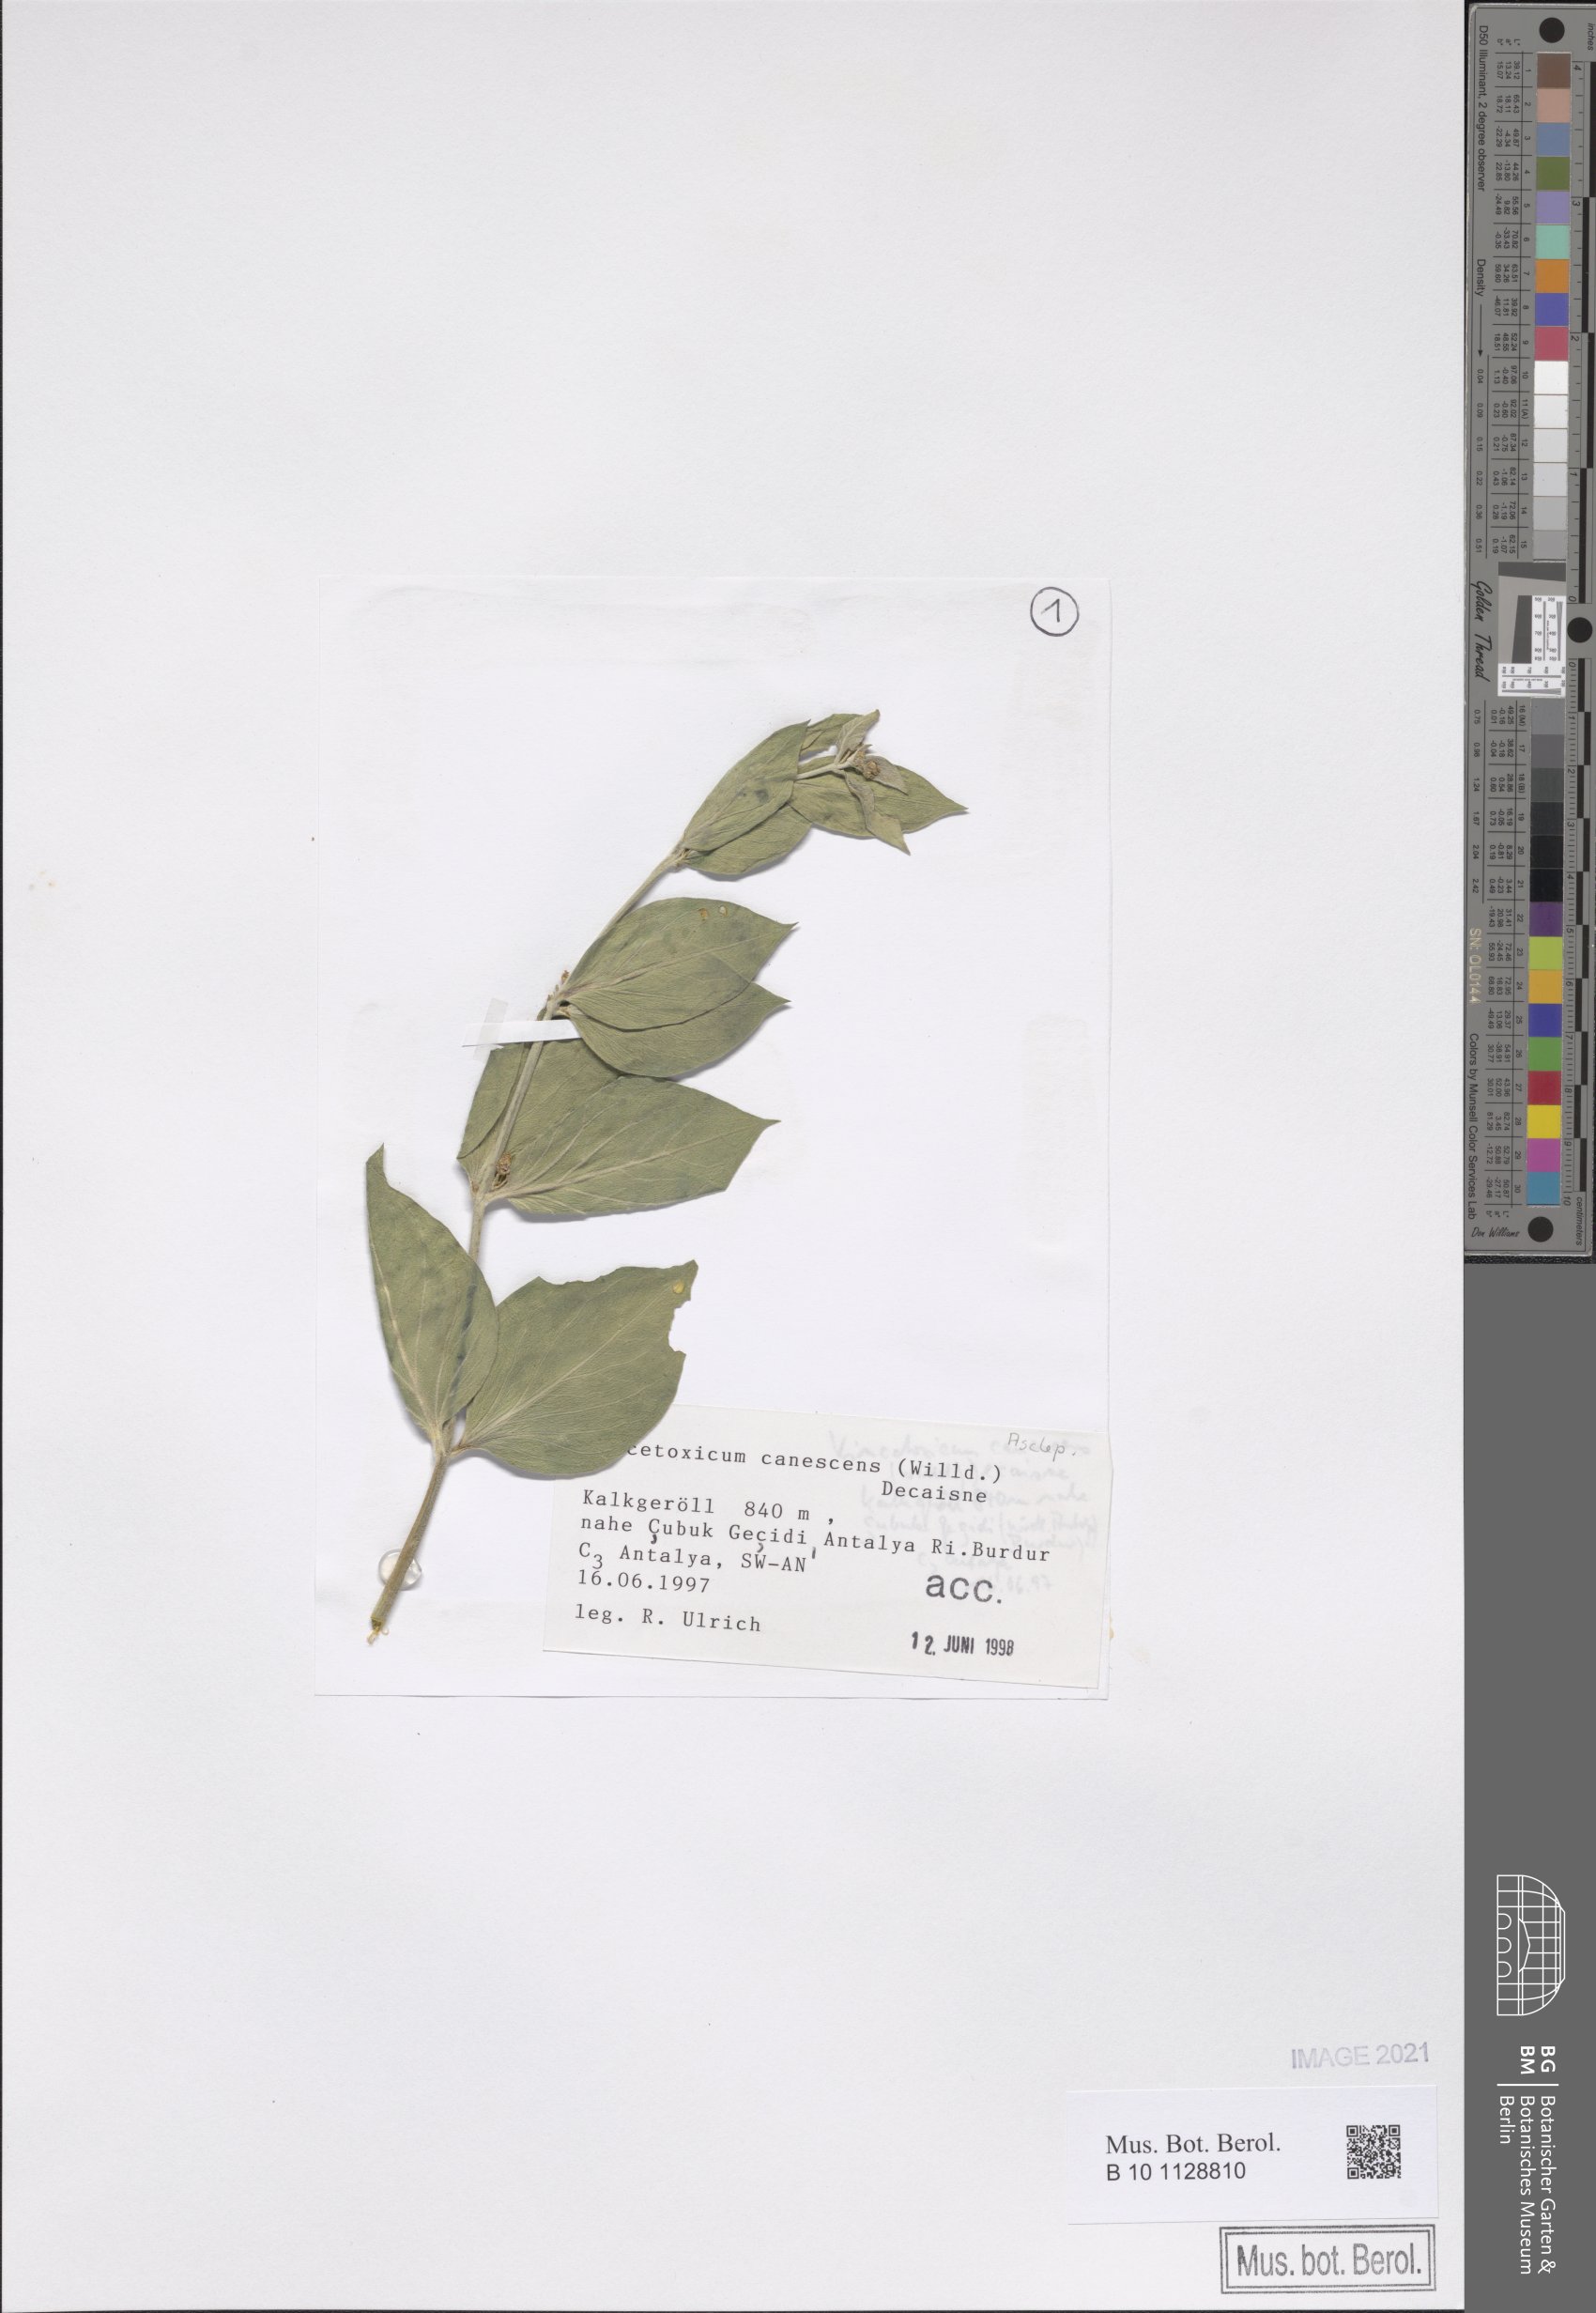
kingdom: Plantae
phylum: Tracheophyta
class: Magnoliopsida
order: Gentianales
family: Apocynaceae
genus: Vincetoxicum
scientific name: Vincetoxicum canescens
